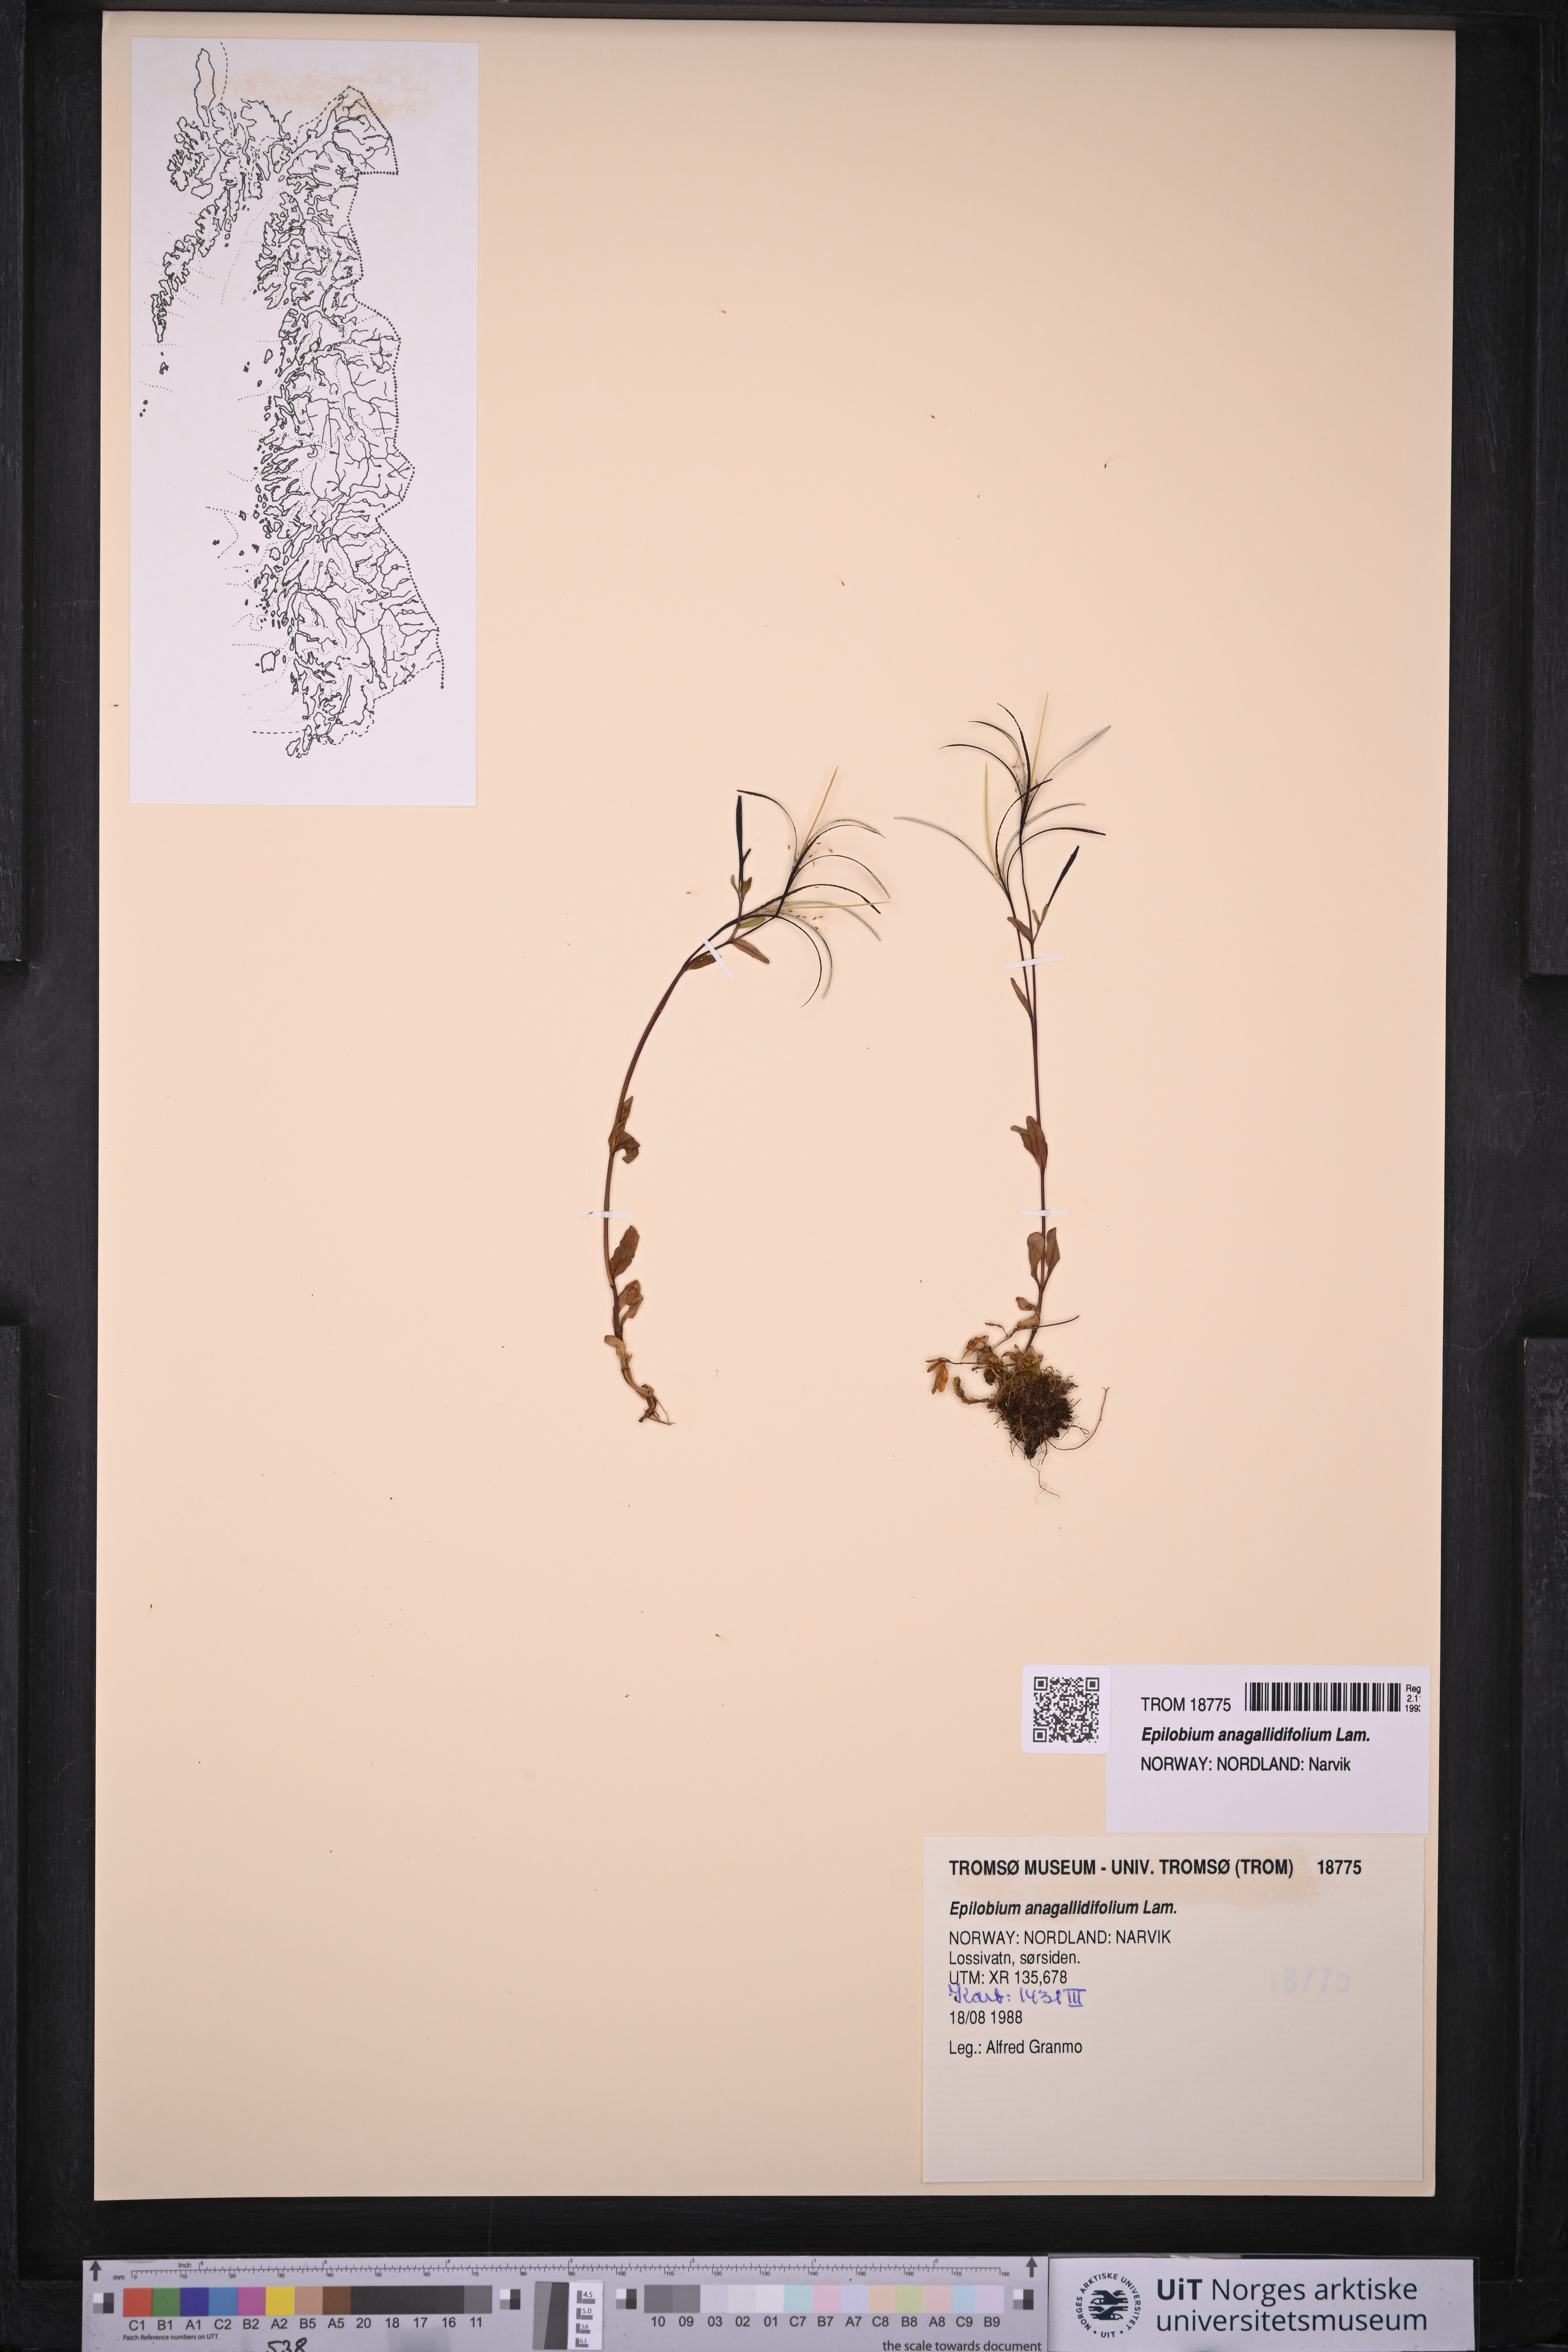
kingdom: Plantae
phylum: Tracheophyta
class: Magnoliopsida
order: Myrtales
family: Onagraceae
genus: Epilobium
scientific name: Epilobium anagallidifolium
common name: Alpine willowherb
